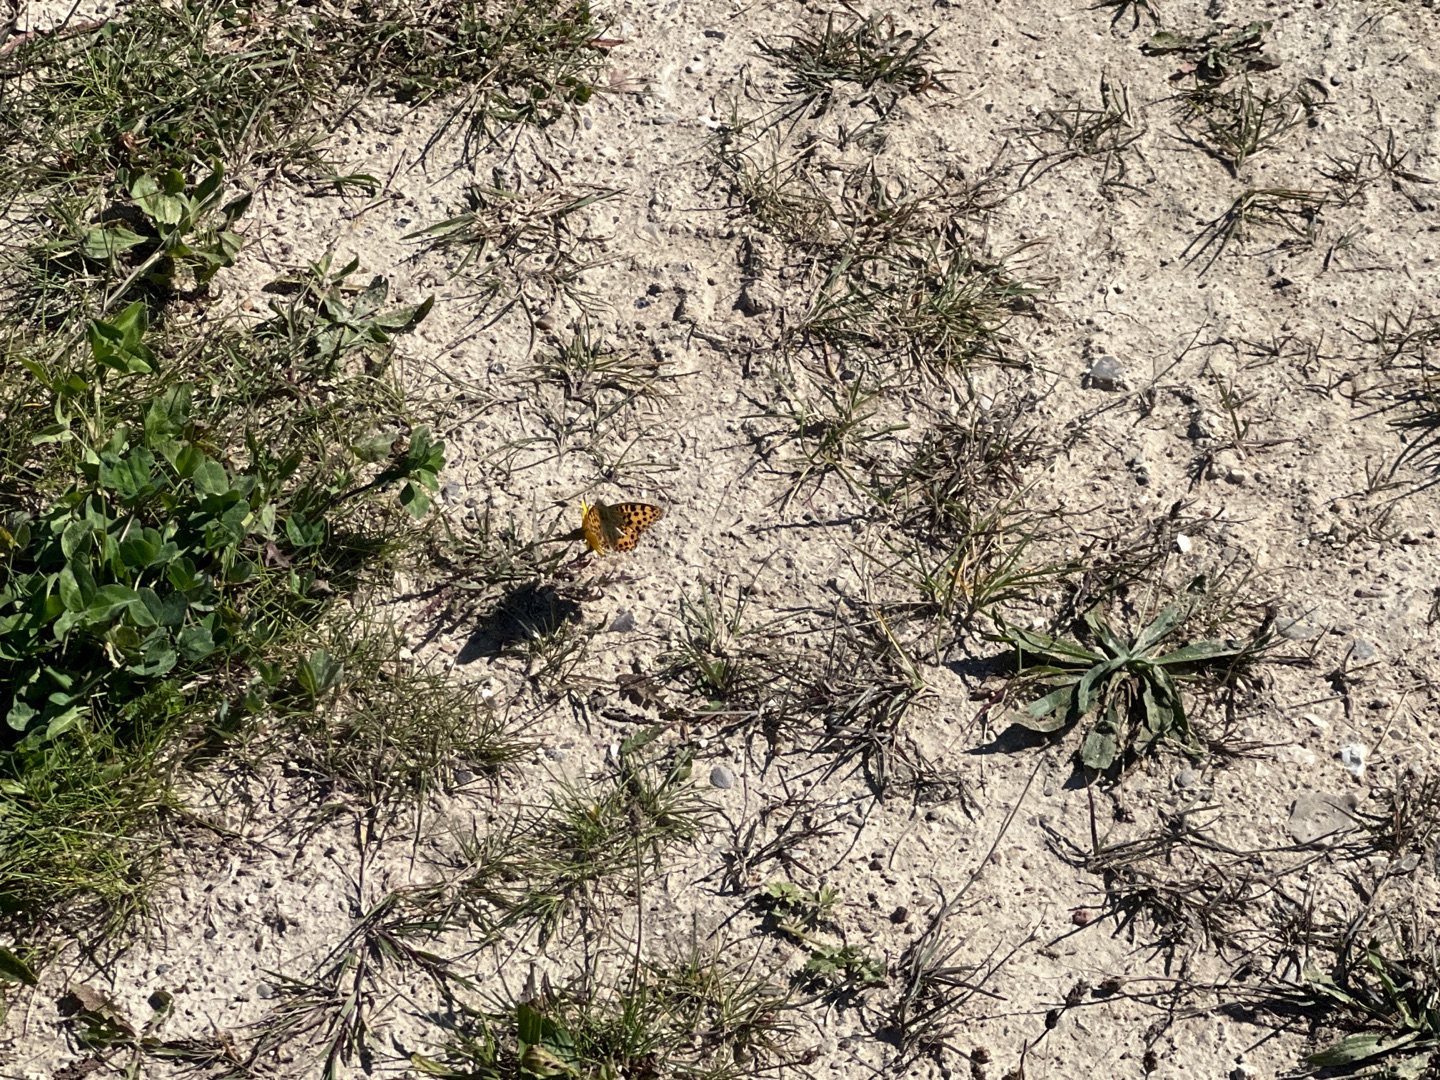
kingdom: Animalia
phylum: Arthropoda
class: Insecta
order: Lepidoptera
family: Nymphalidae
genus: Issoria
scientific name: Issoria lathonia
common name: Storplettet perlemorsommerfugl
